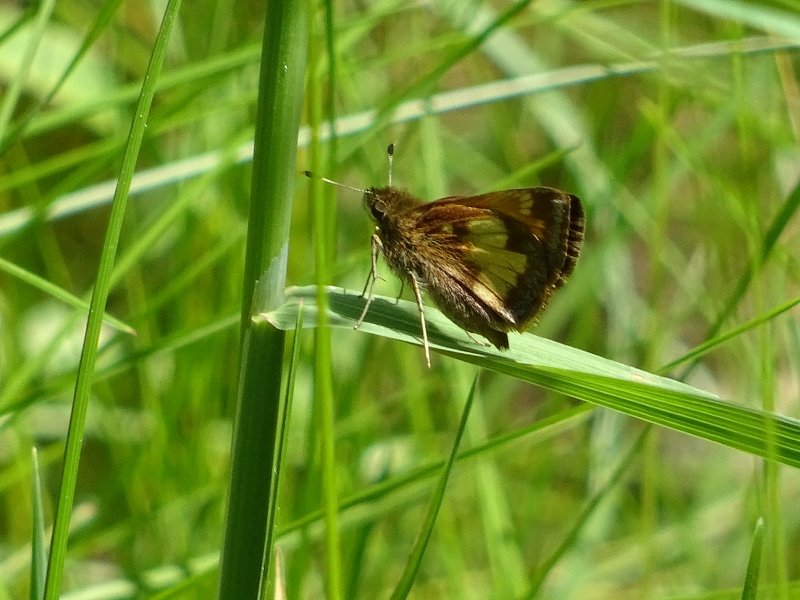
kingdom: Animalia
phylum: Arthropoda
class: Insecta
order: Lepidoptera
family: Hesperiidae
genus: Lon
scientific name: Lon hobomok
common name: Hobomok Skipper
